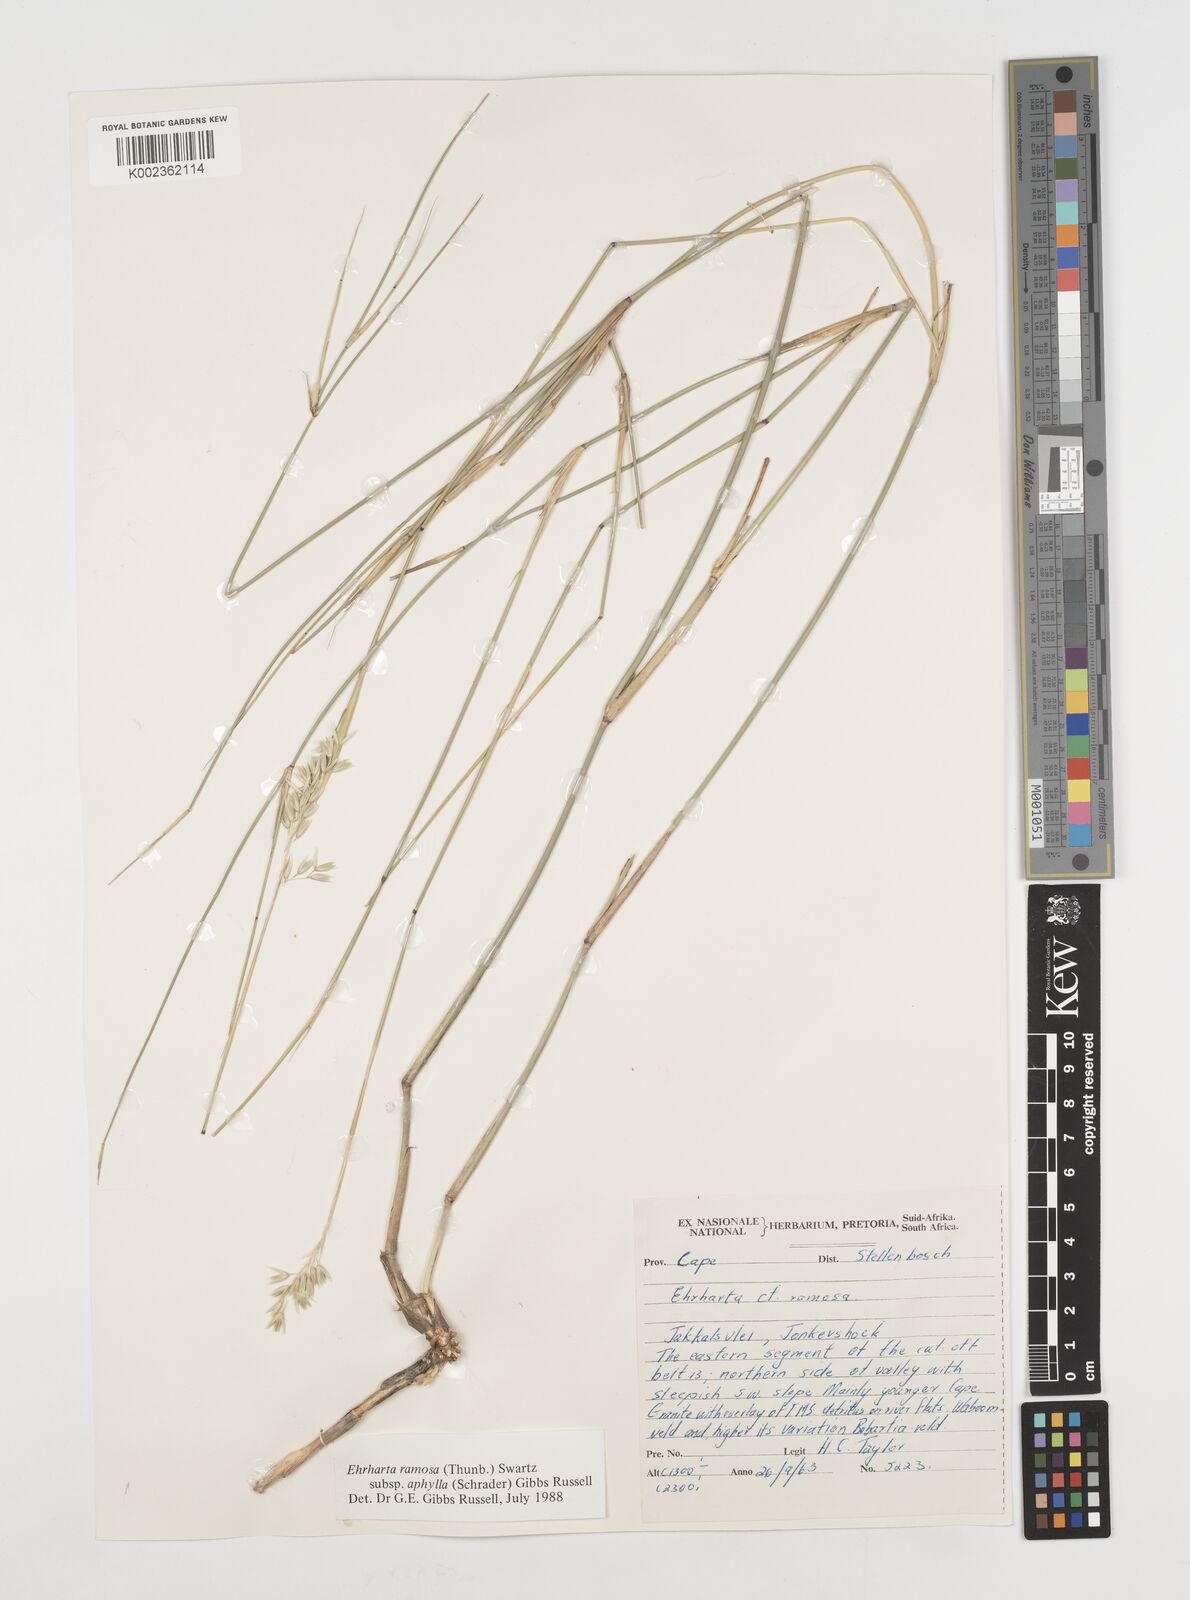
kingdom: Plantae
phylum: Tracheophyta
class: Liliopsida
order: Poales
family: Poaceae
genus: Ehrharta
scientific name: Ehrharta digyna
